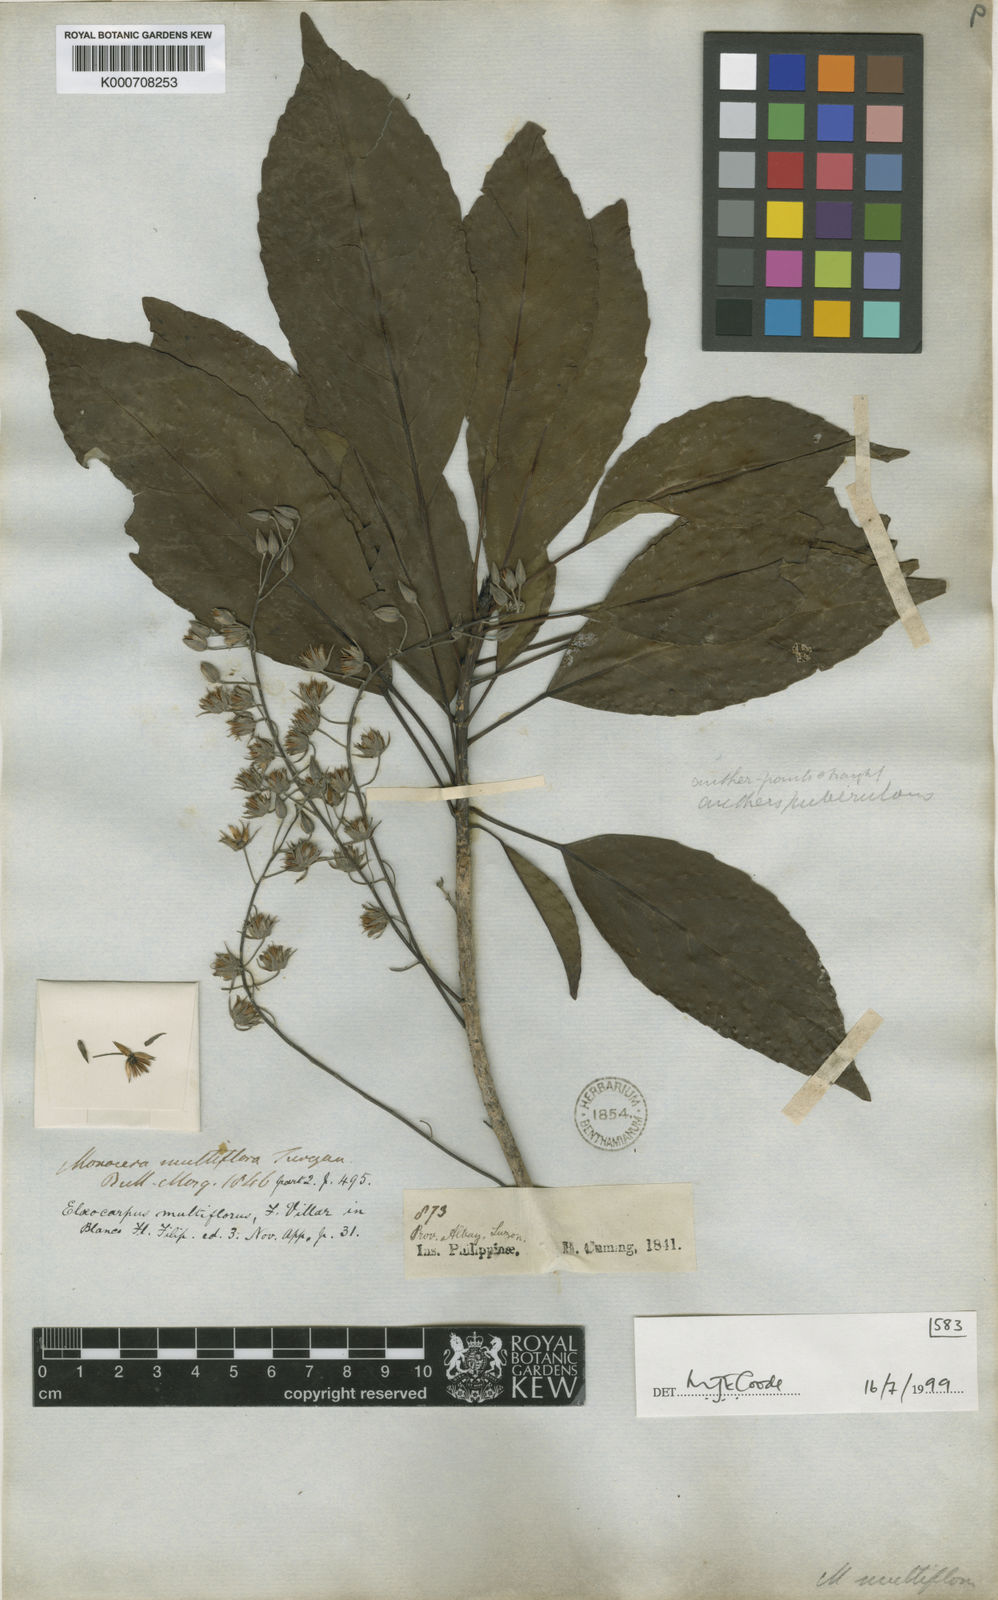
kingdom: Plantae
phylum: Tracheophyta
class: Magnoliopsida
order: Oxalidales
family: Elaeocarpaceae
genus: Elaeocarpus
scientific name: Elaeocarpus multiflorus
